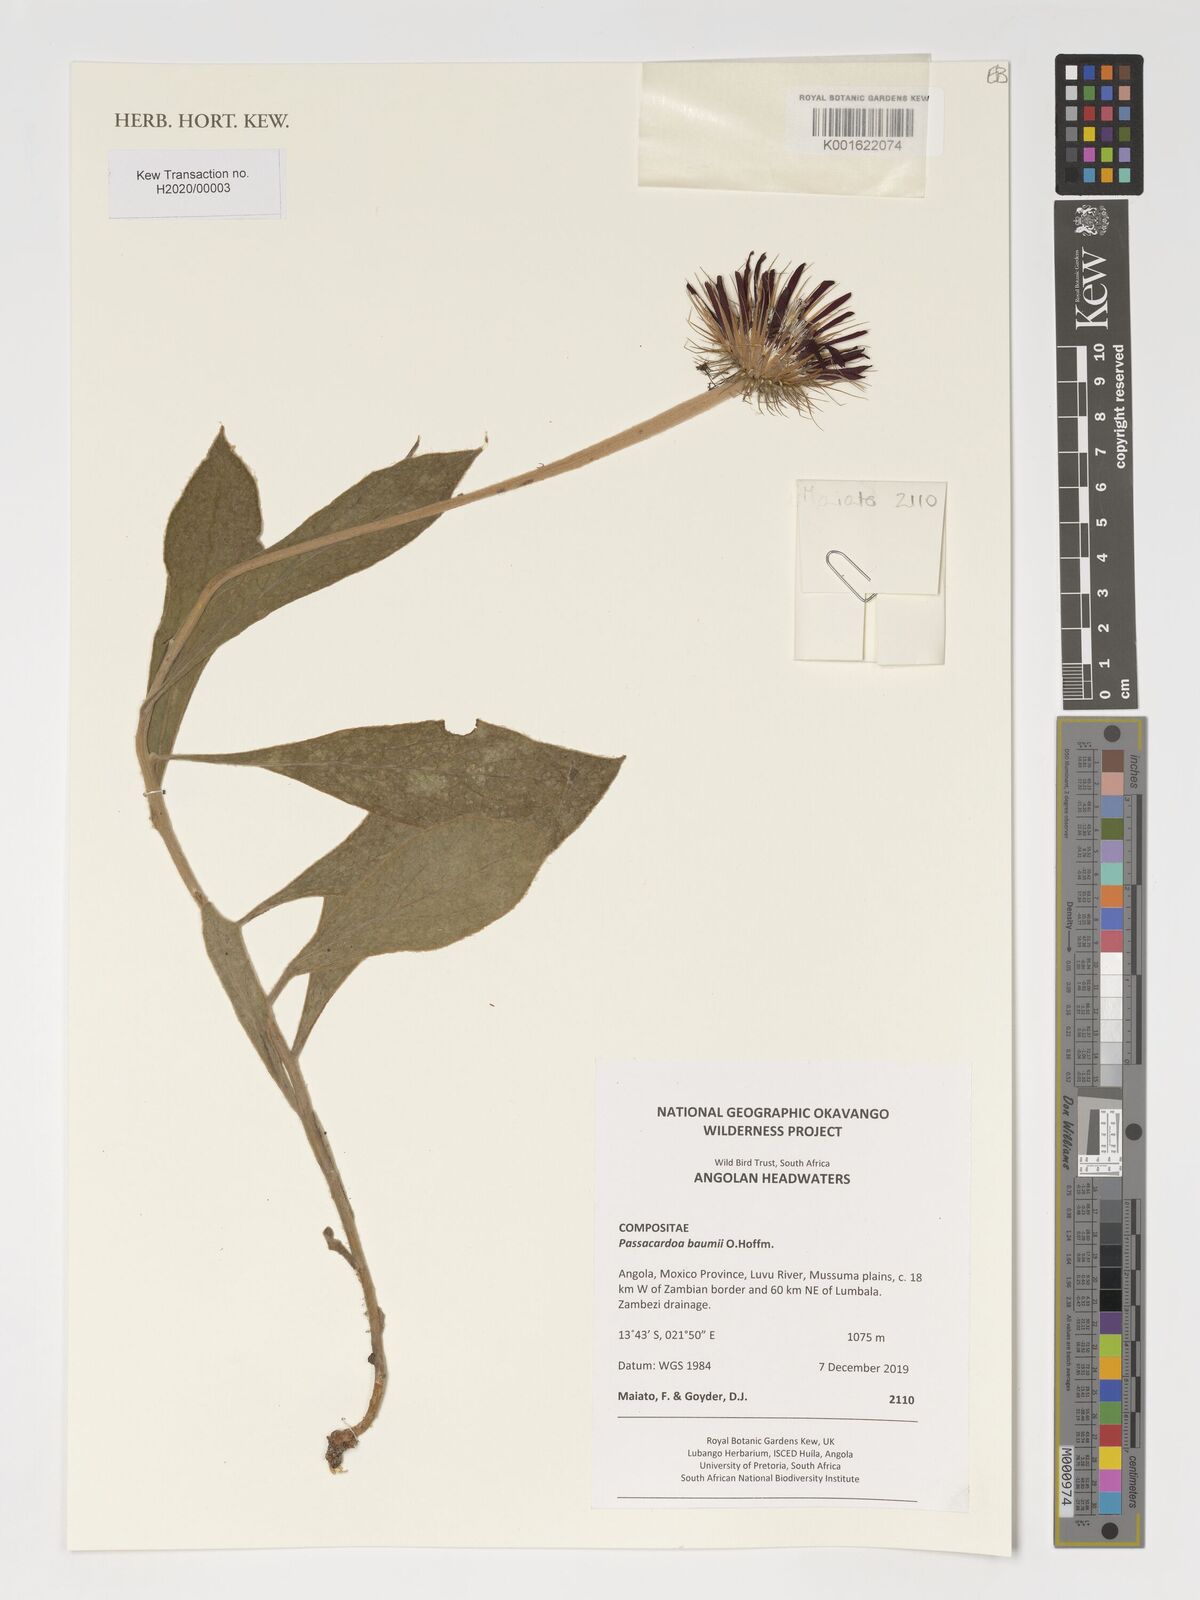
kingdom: Plantae
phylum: Tracheophyta
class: Magnoliopsida
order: Asterales
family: Asteraceae
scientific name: Asteraceae
